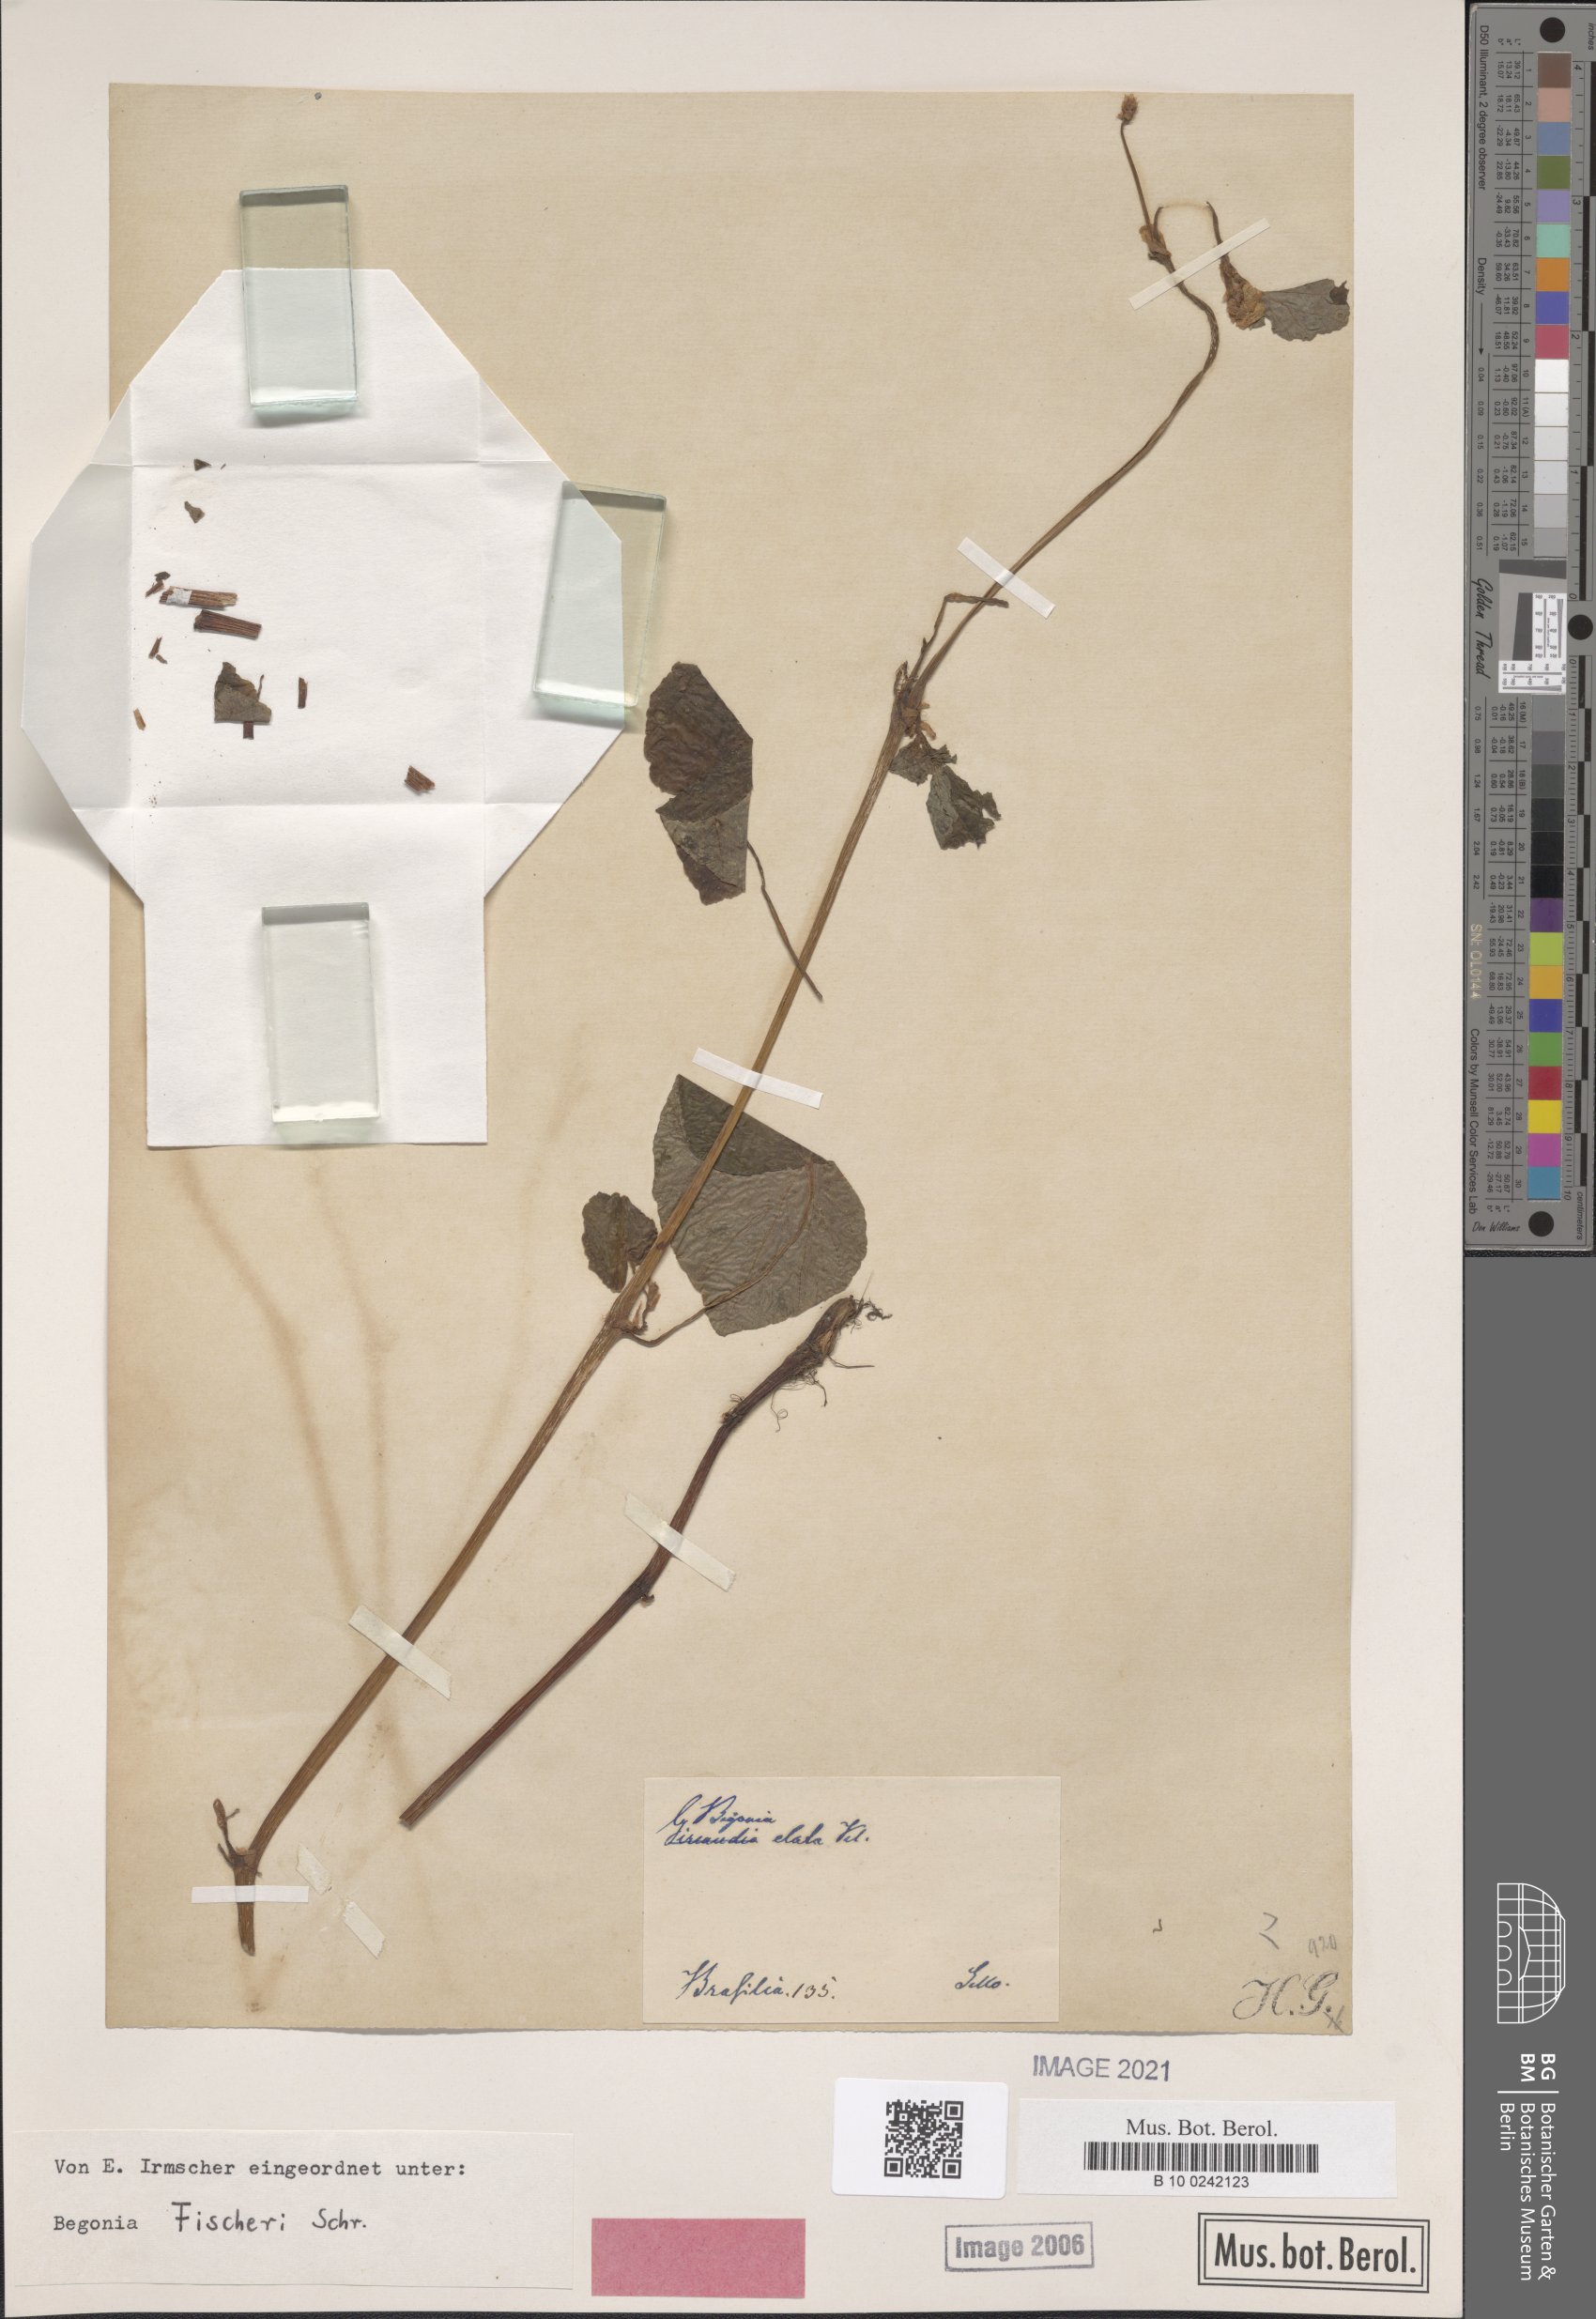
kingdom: Plantae
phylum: Tracheophyta
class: Magnoliopsida
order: Cucurbitales
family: Begoniaceae
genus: Begonia
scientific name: Begonia fischeri
